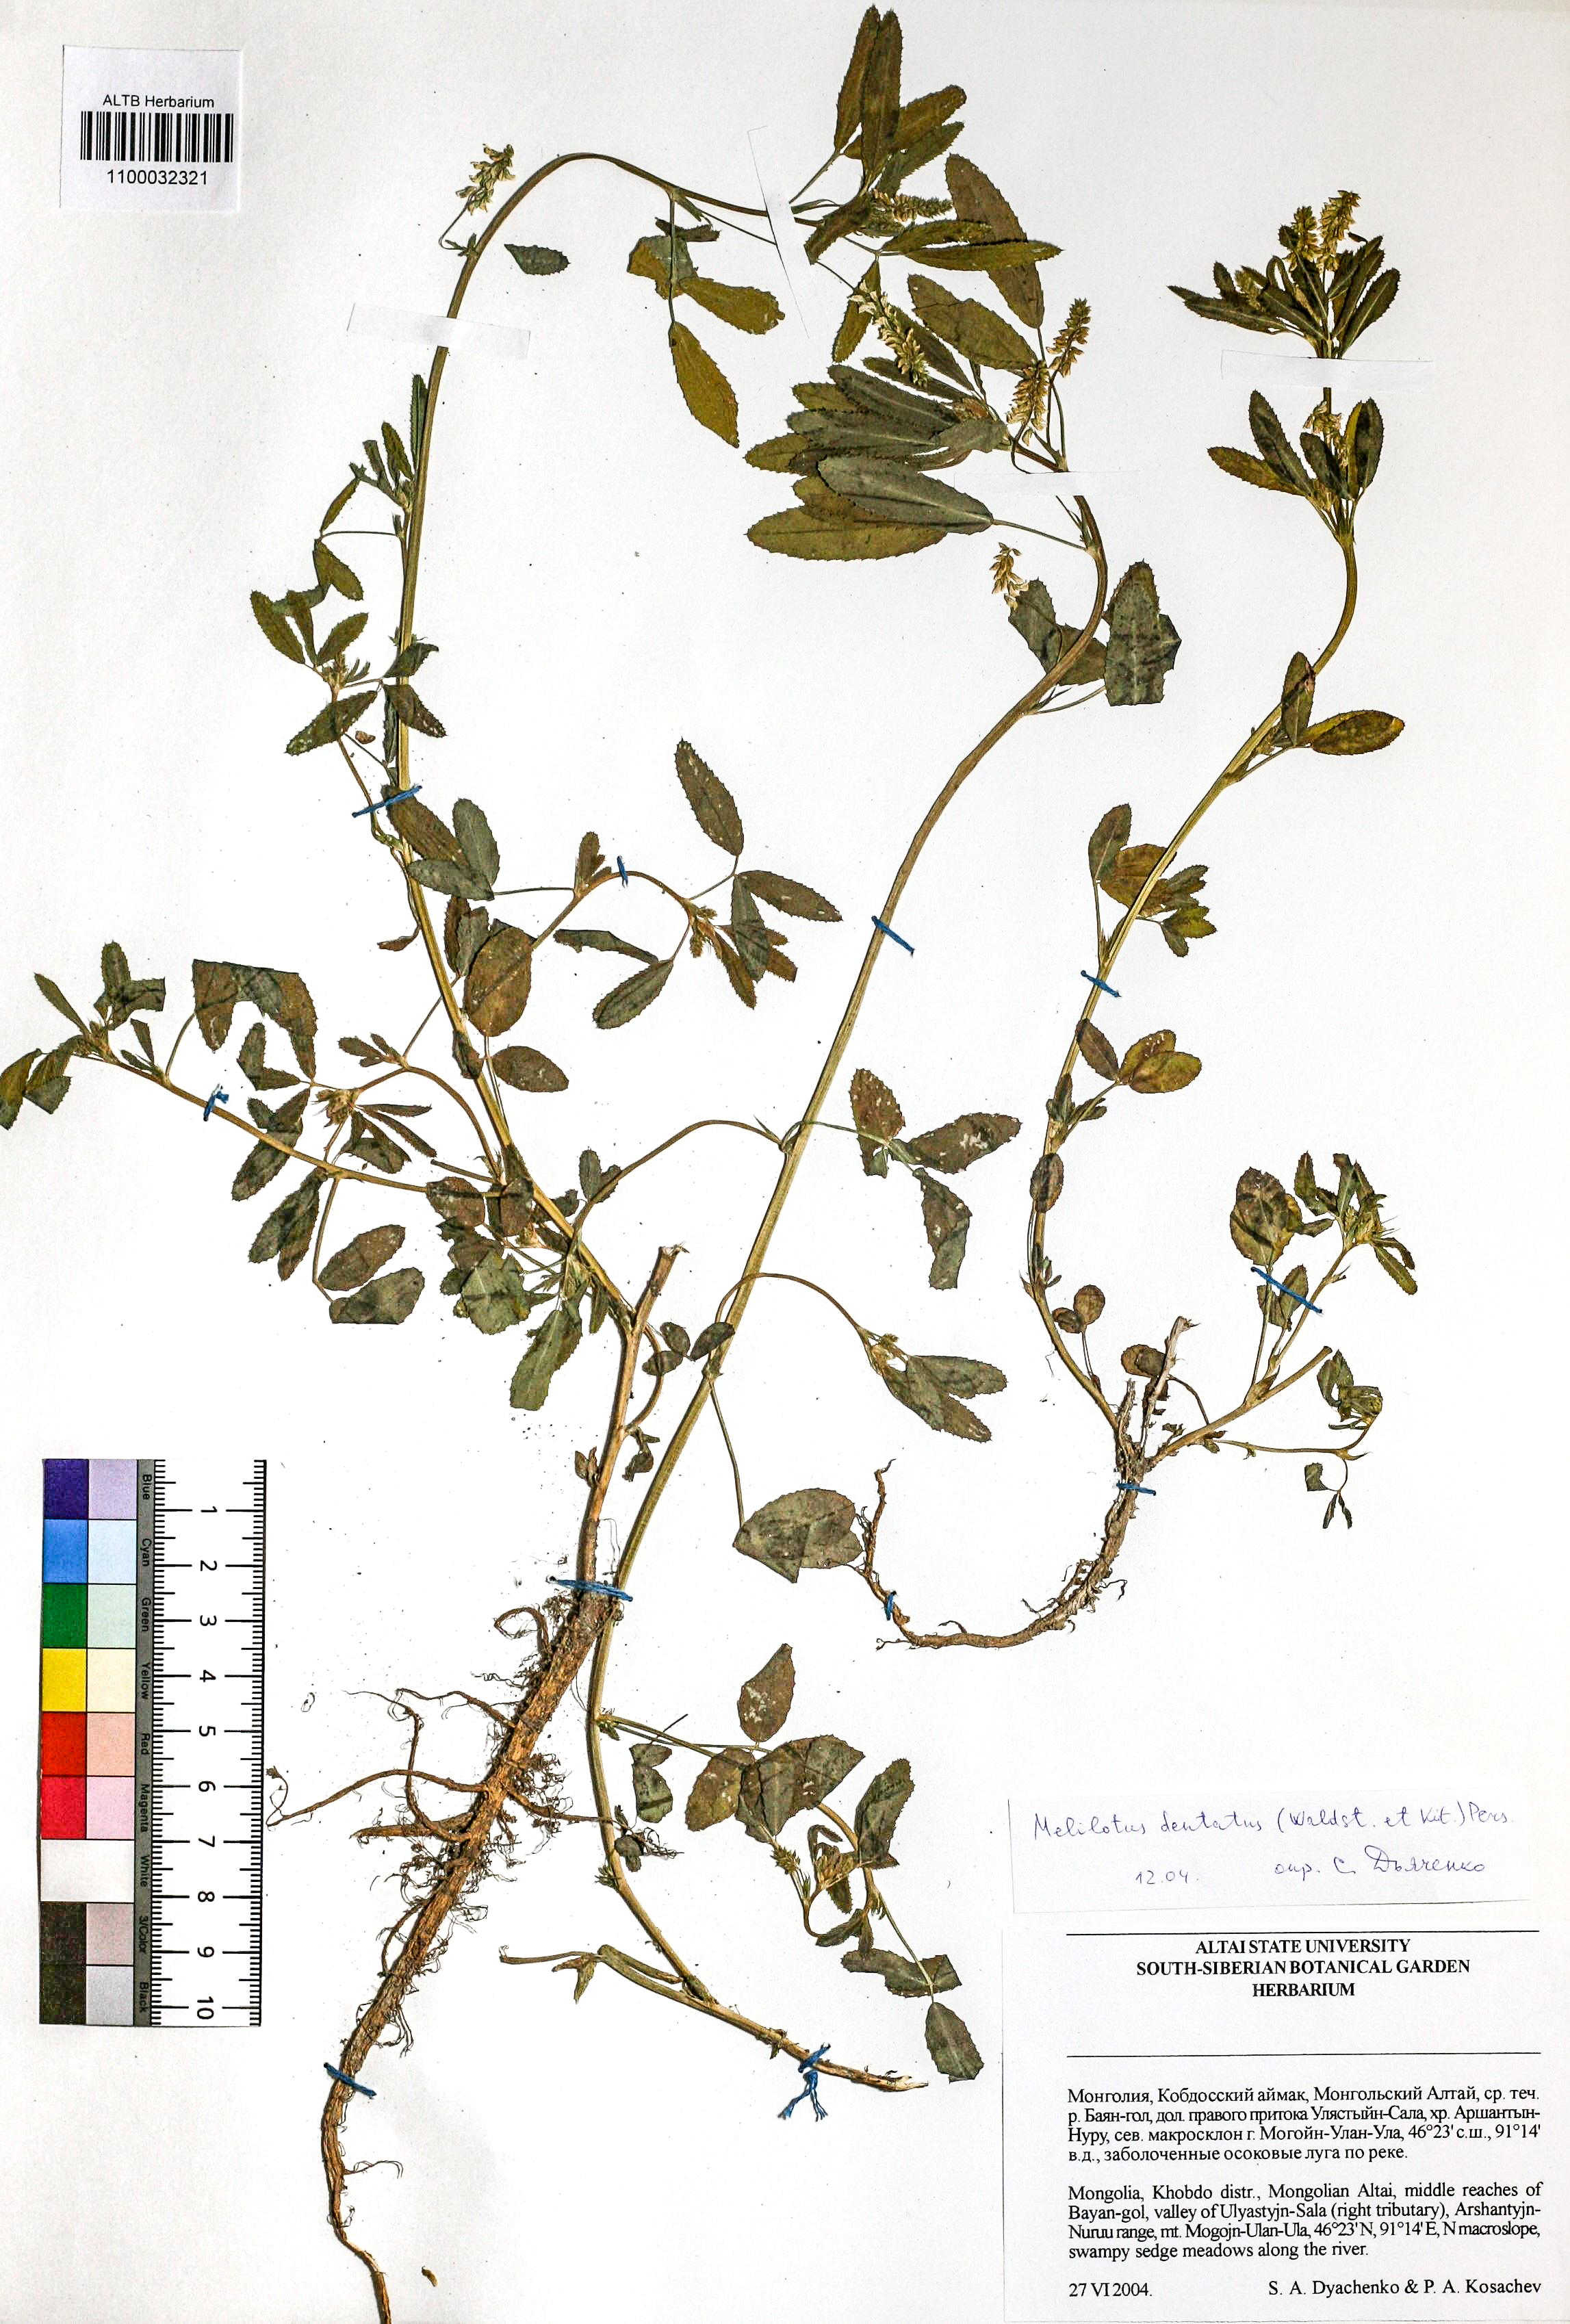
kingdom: Plantae
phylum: Tracheophyta
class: Magnoliopsida
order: Fabales
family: Fabaceae
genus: Melilotus
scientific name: Melilotus dentatus
